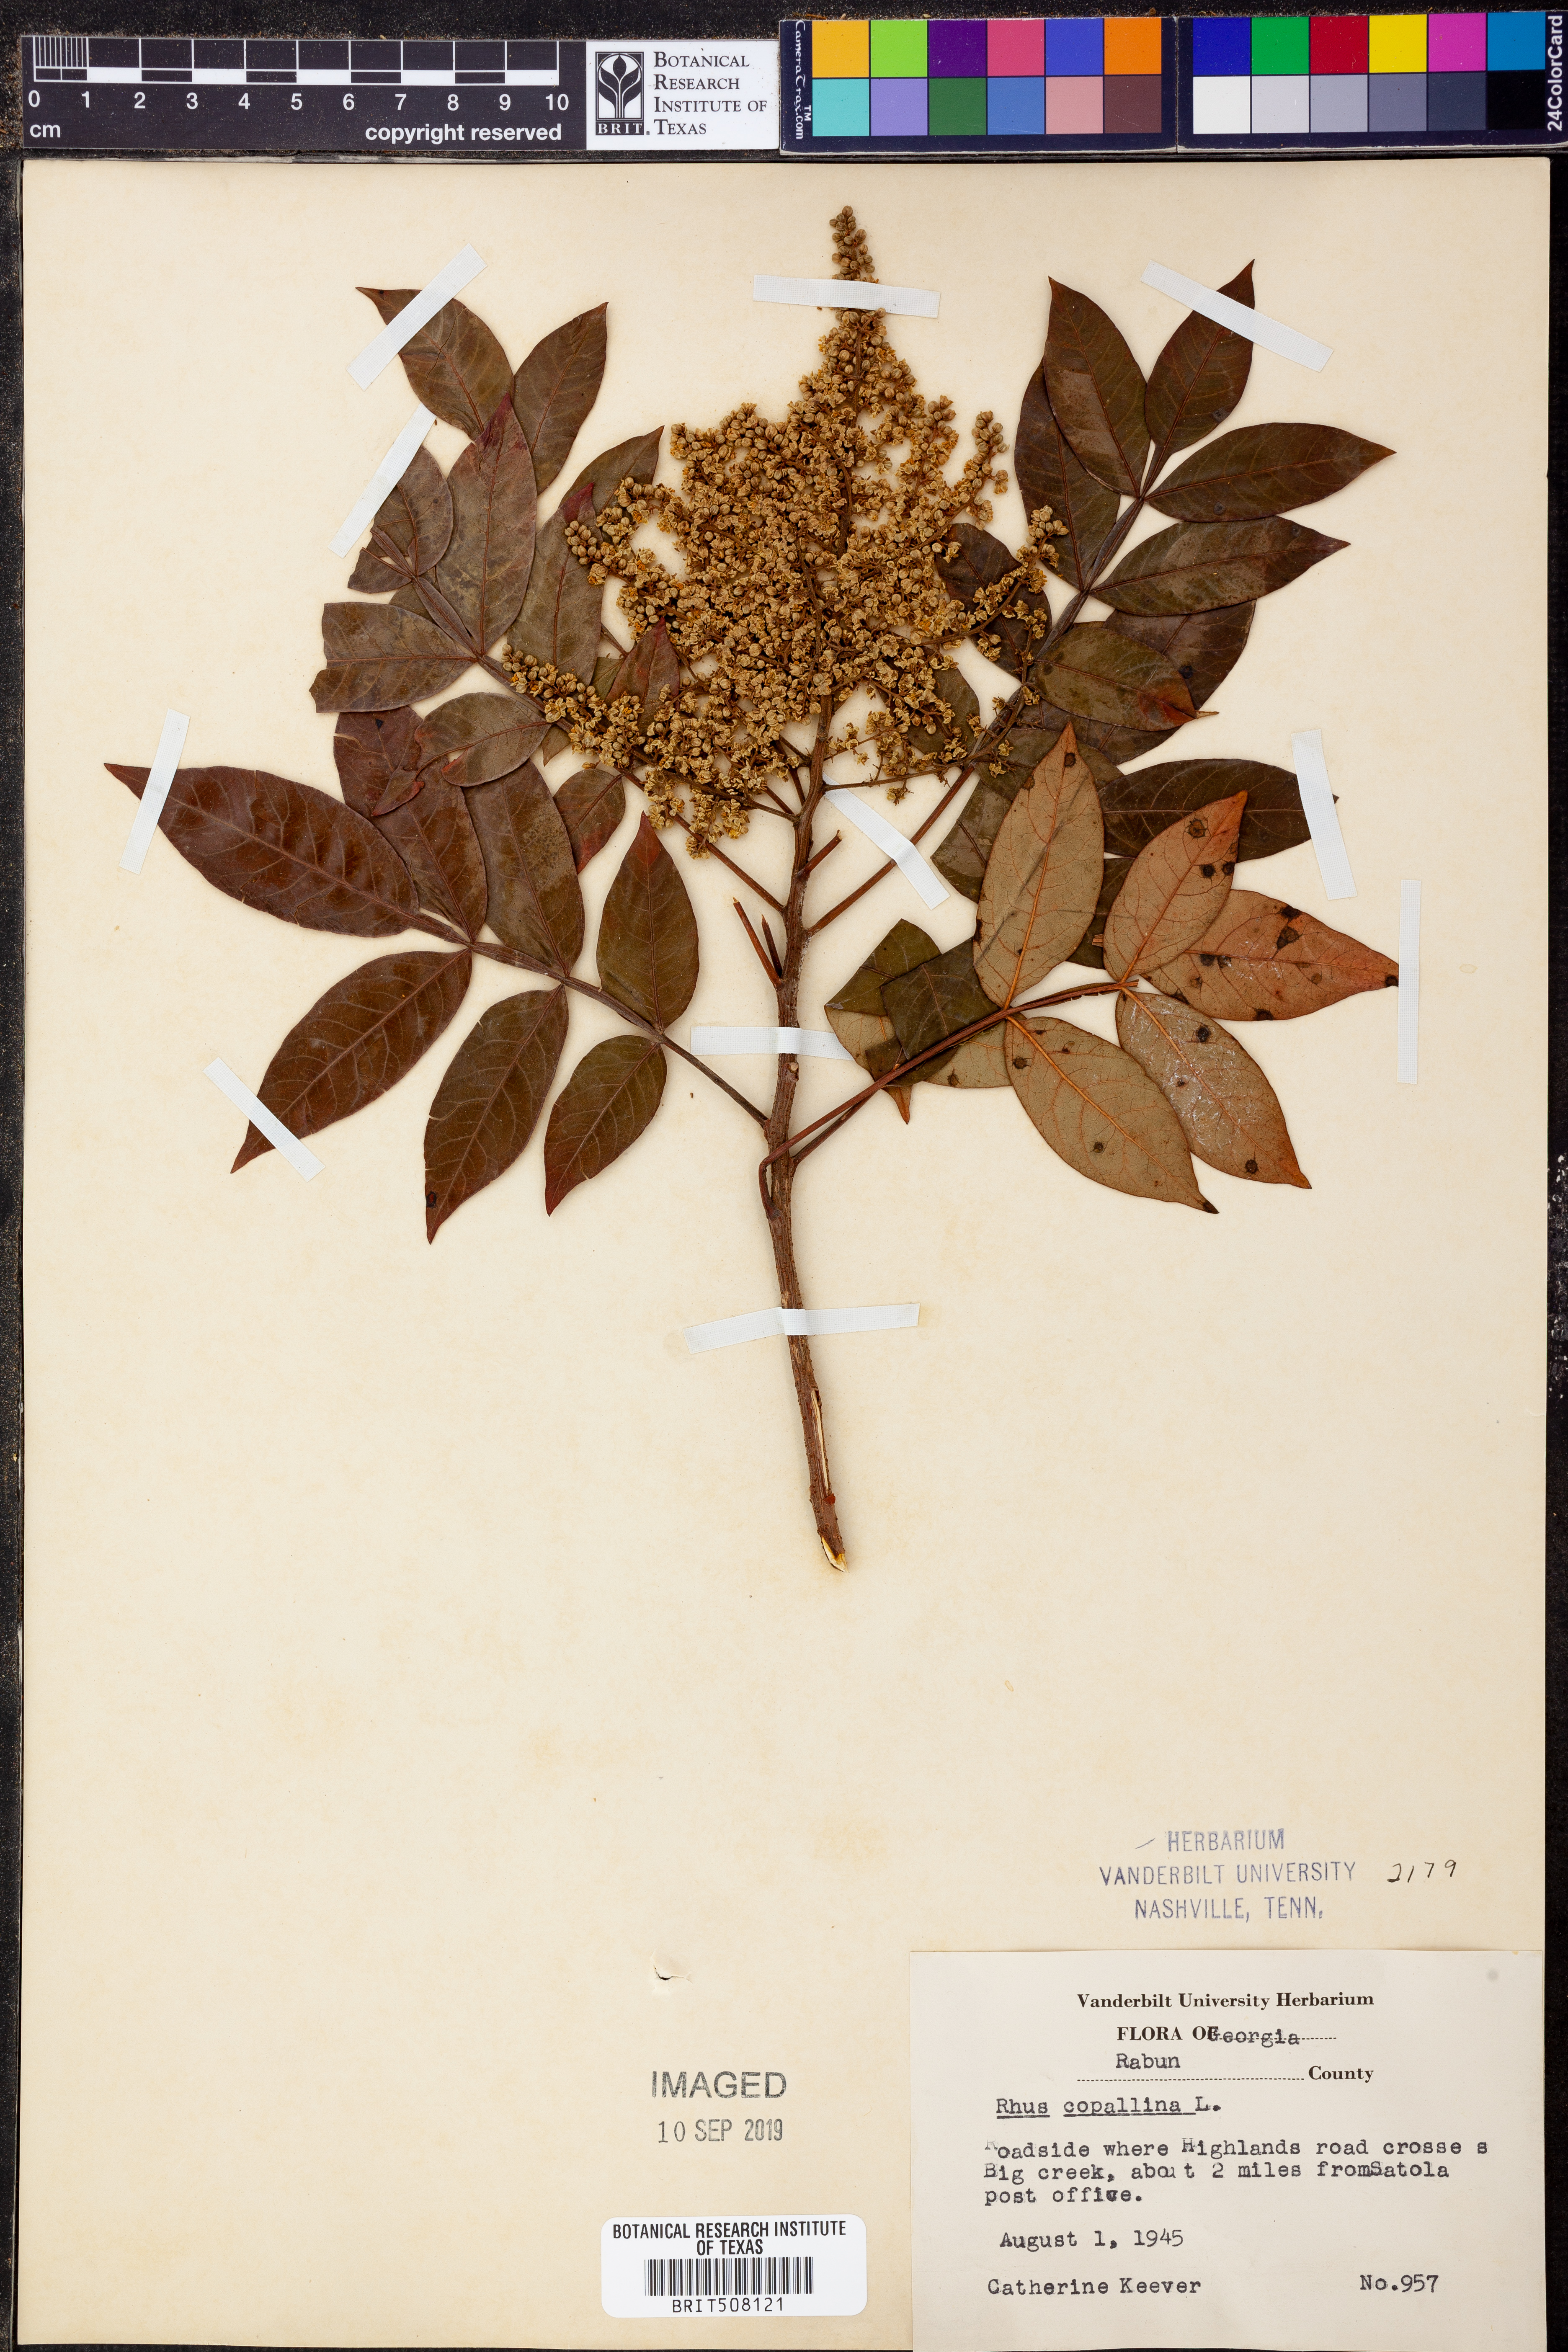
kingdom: Plantae
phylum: Tracheophyta
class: Magnoliopsida
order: Sapindales
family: Anacardiaceae
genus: Rhus
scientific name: Rhus copallina
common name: Shining sumac
